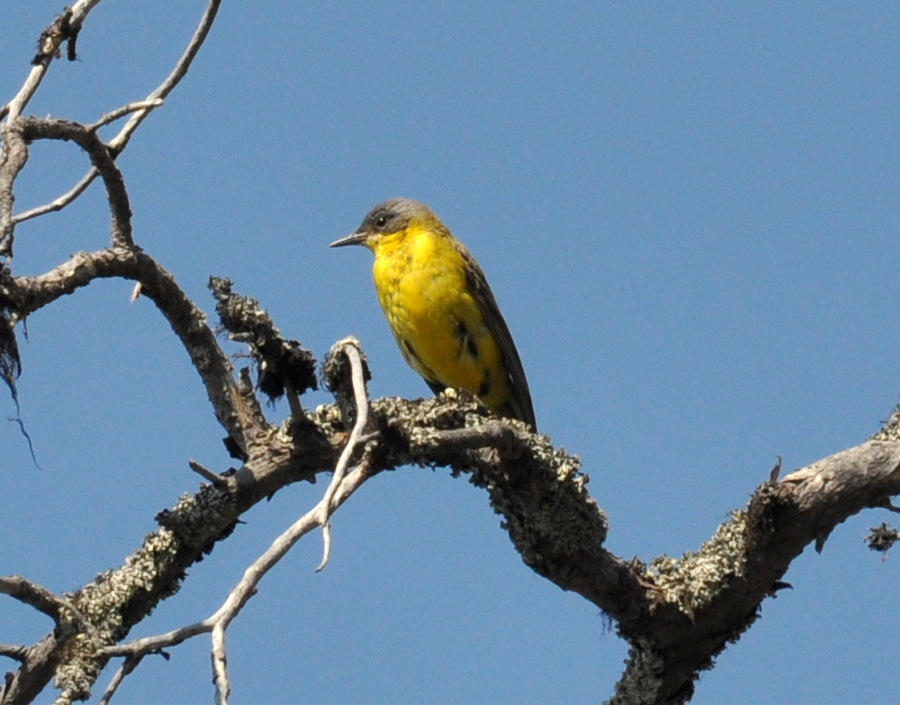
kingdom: Animalia
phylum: Chordata
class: Aves
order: Passeriformes
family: Motacillidae
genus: Motacilla
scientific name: Motacilla flava
